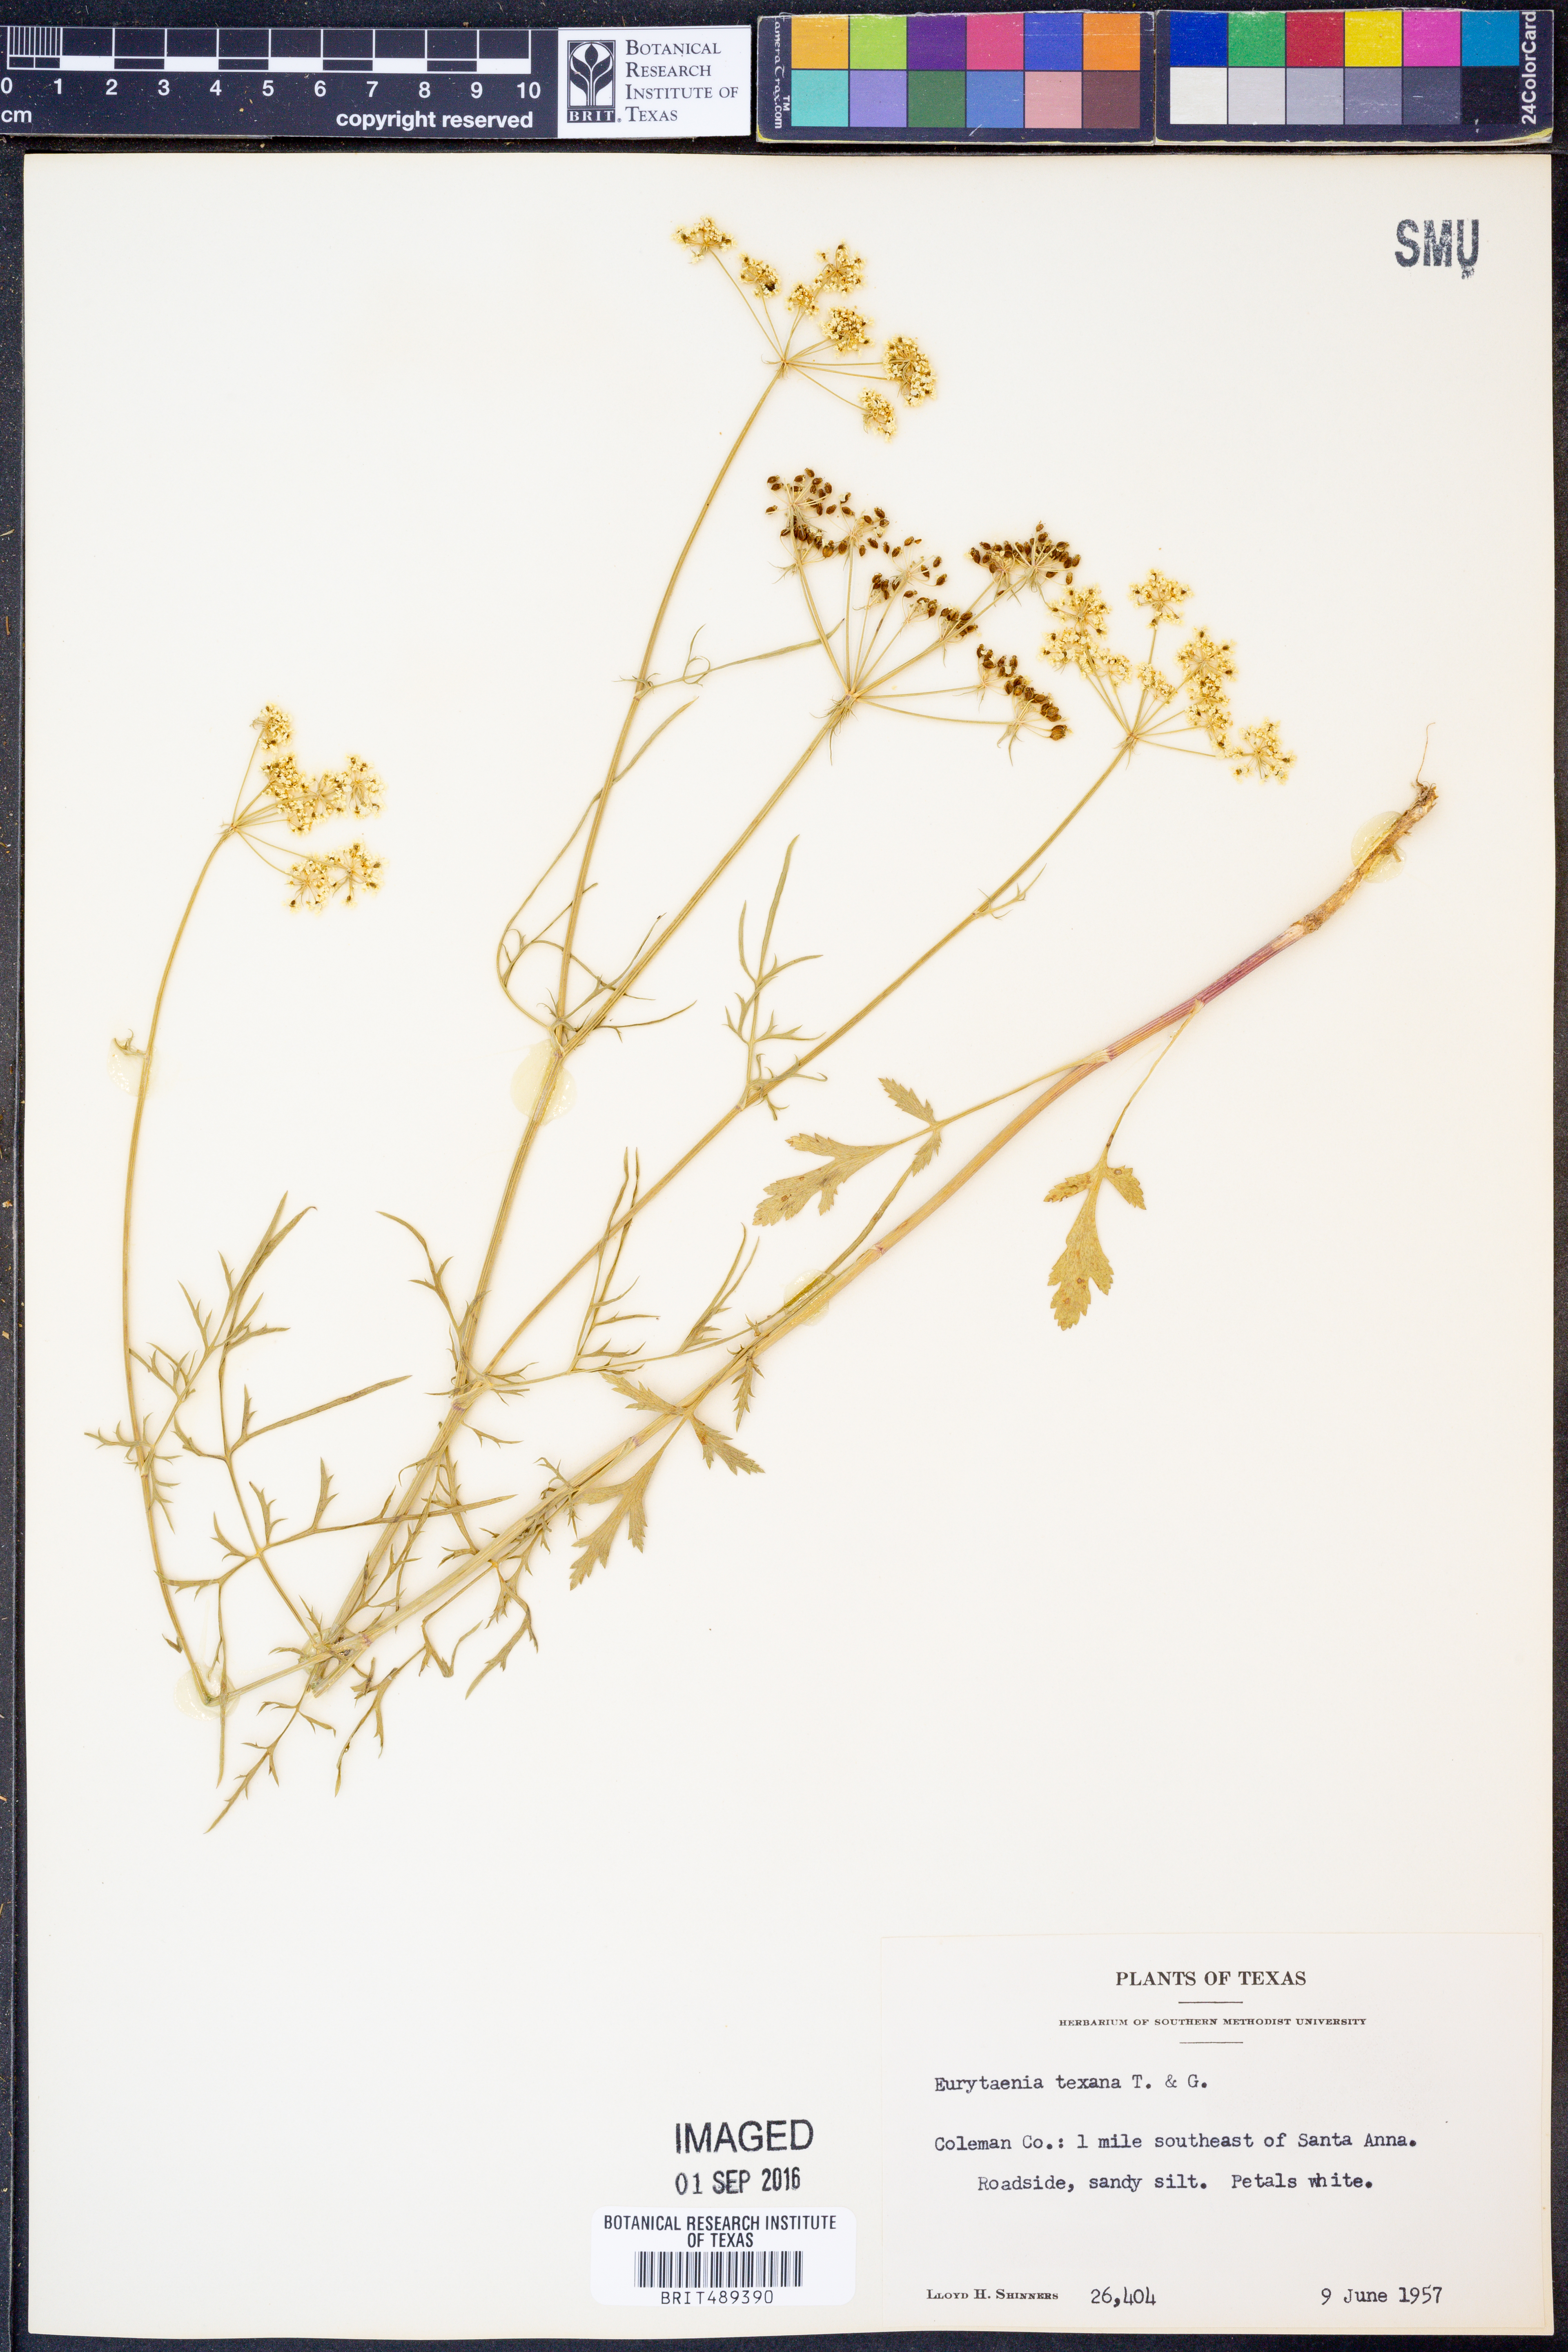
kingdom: Plantae
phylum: Tracheophyta
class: Magnoliopsida
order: Apiales
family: Apiaceae
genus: Eurytaenia
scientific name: Eurytaenia texana
